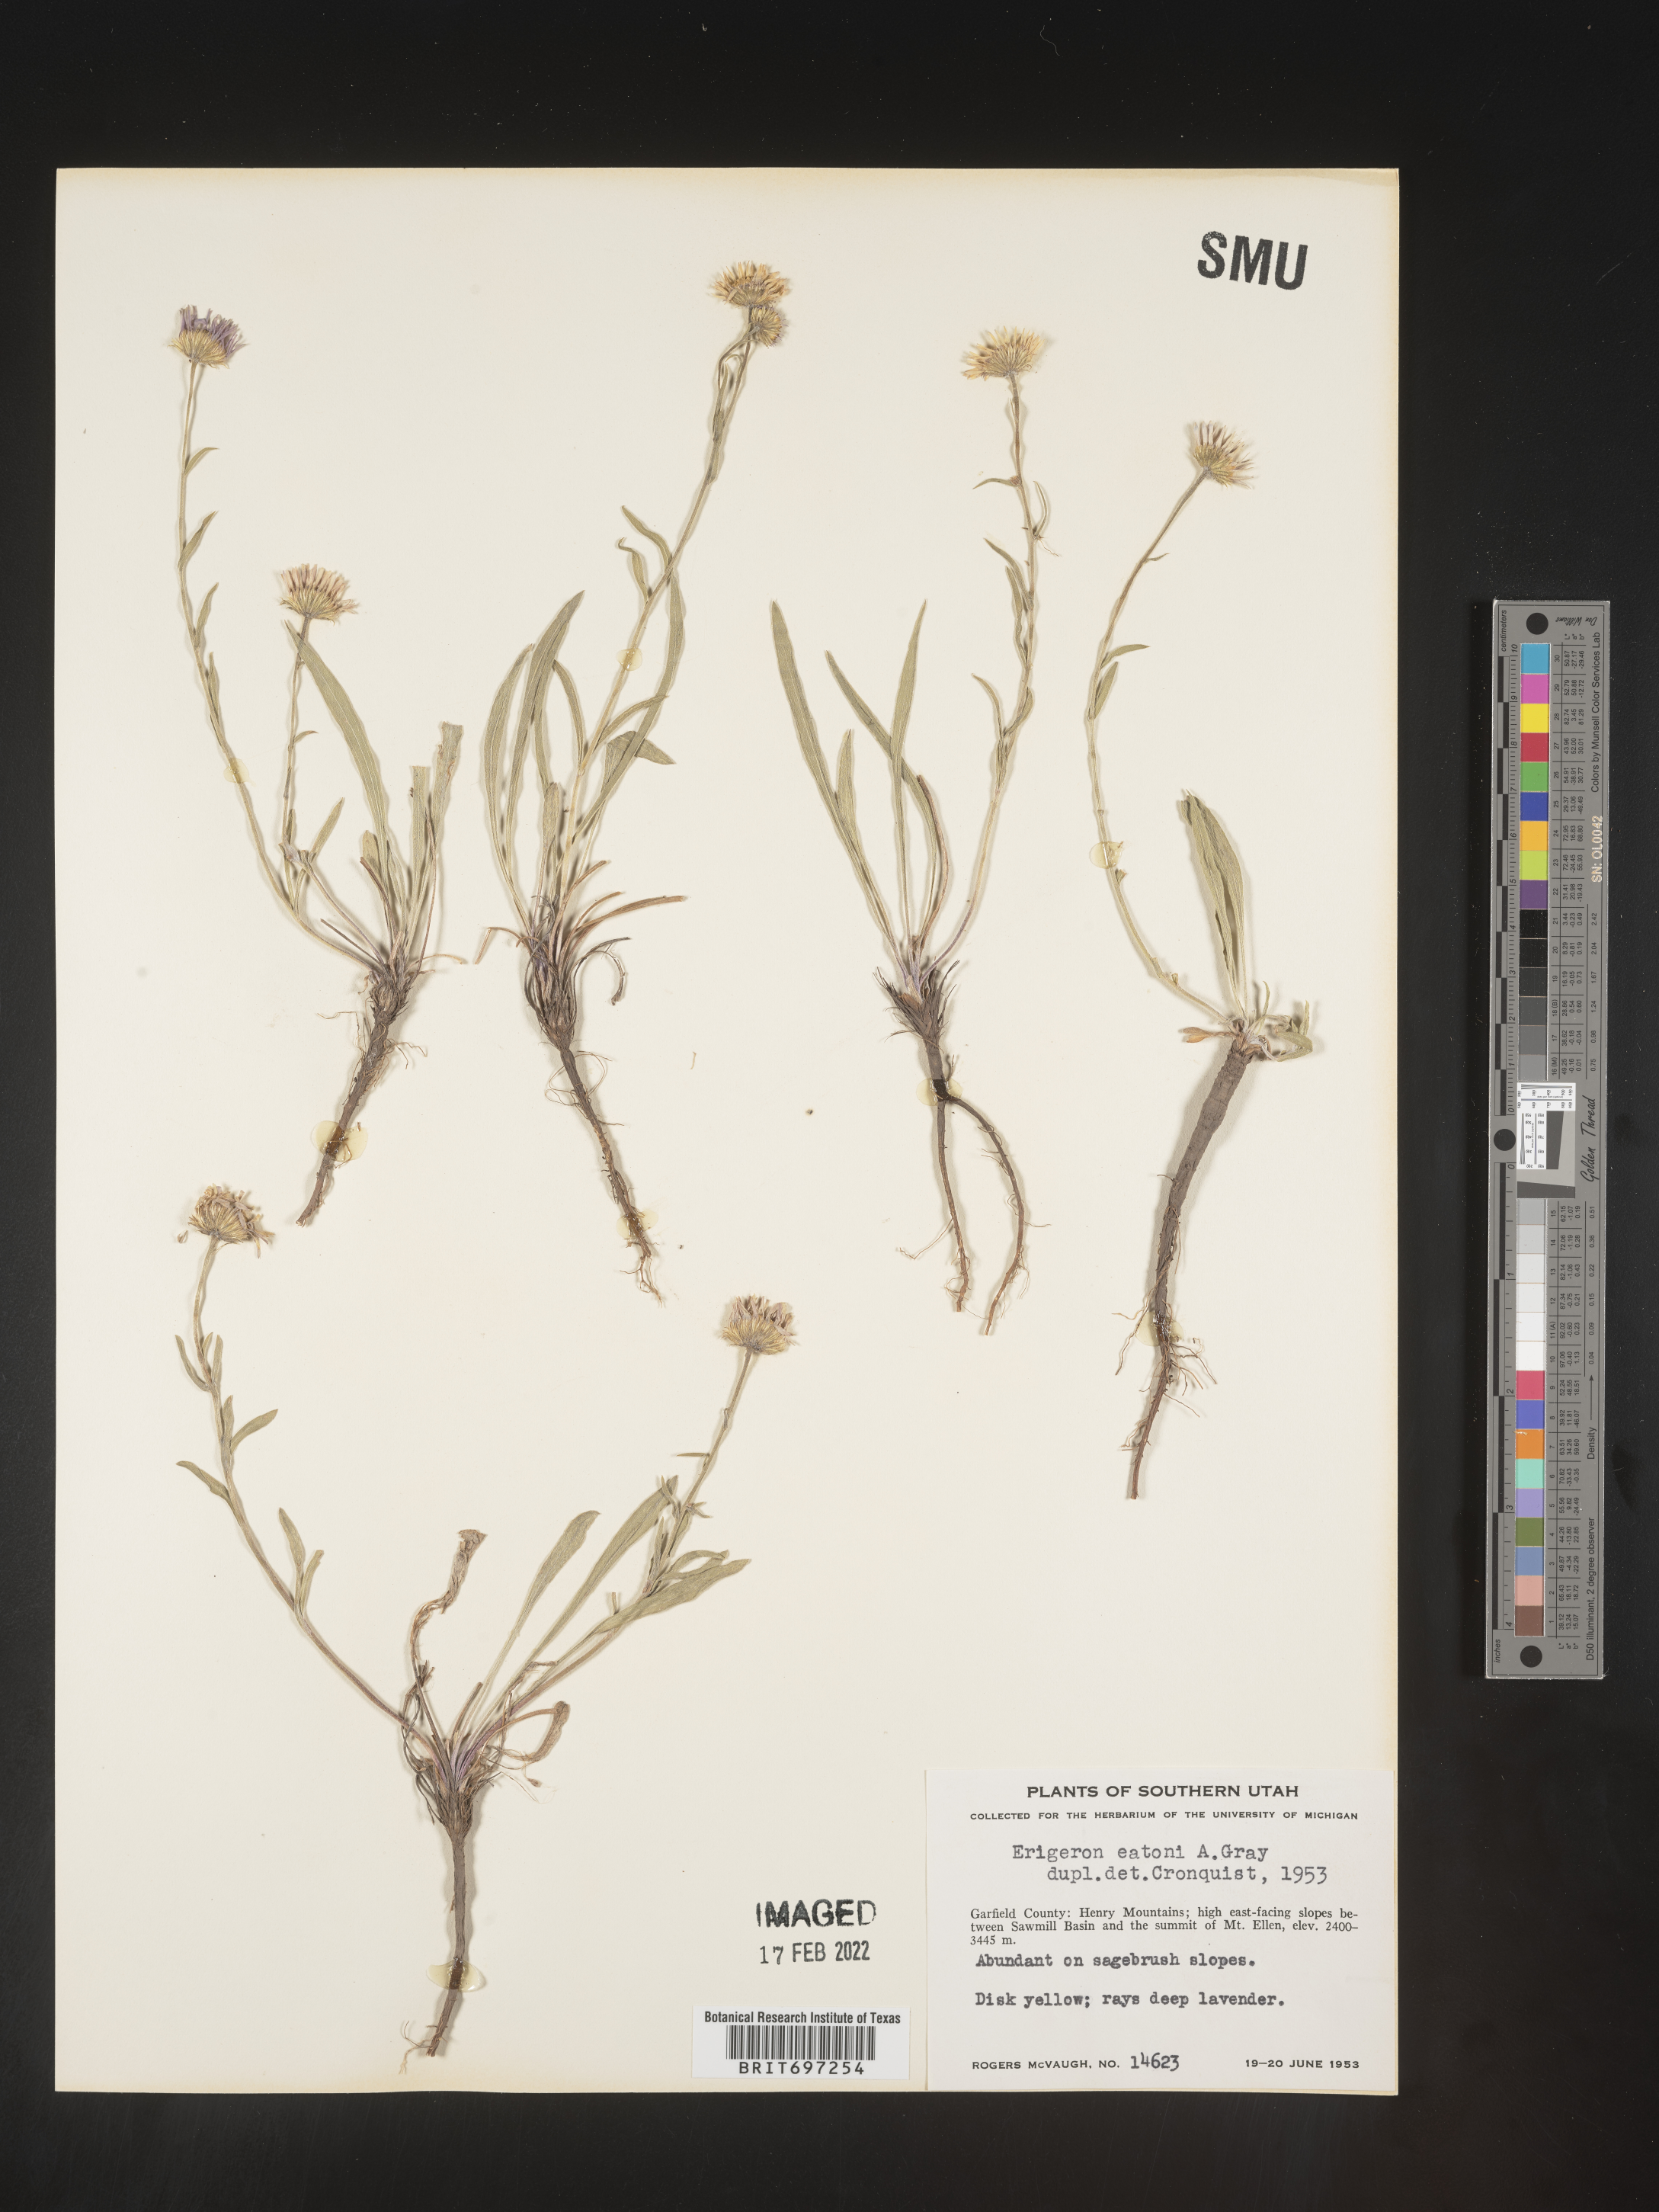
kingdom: Plantae
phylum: Tracheophyta
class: Magnoliopsida
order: Asterales
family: Asteraceae
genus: Erigeron
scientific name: Erigeron eatonii
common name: Eaton's fleabane
